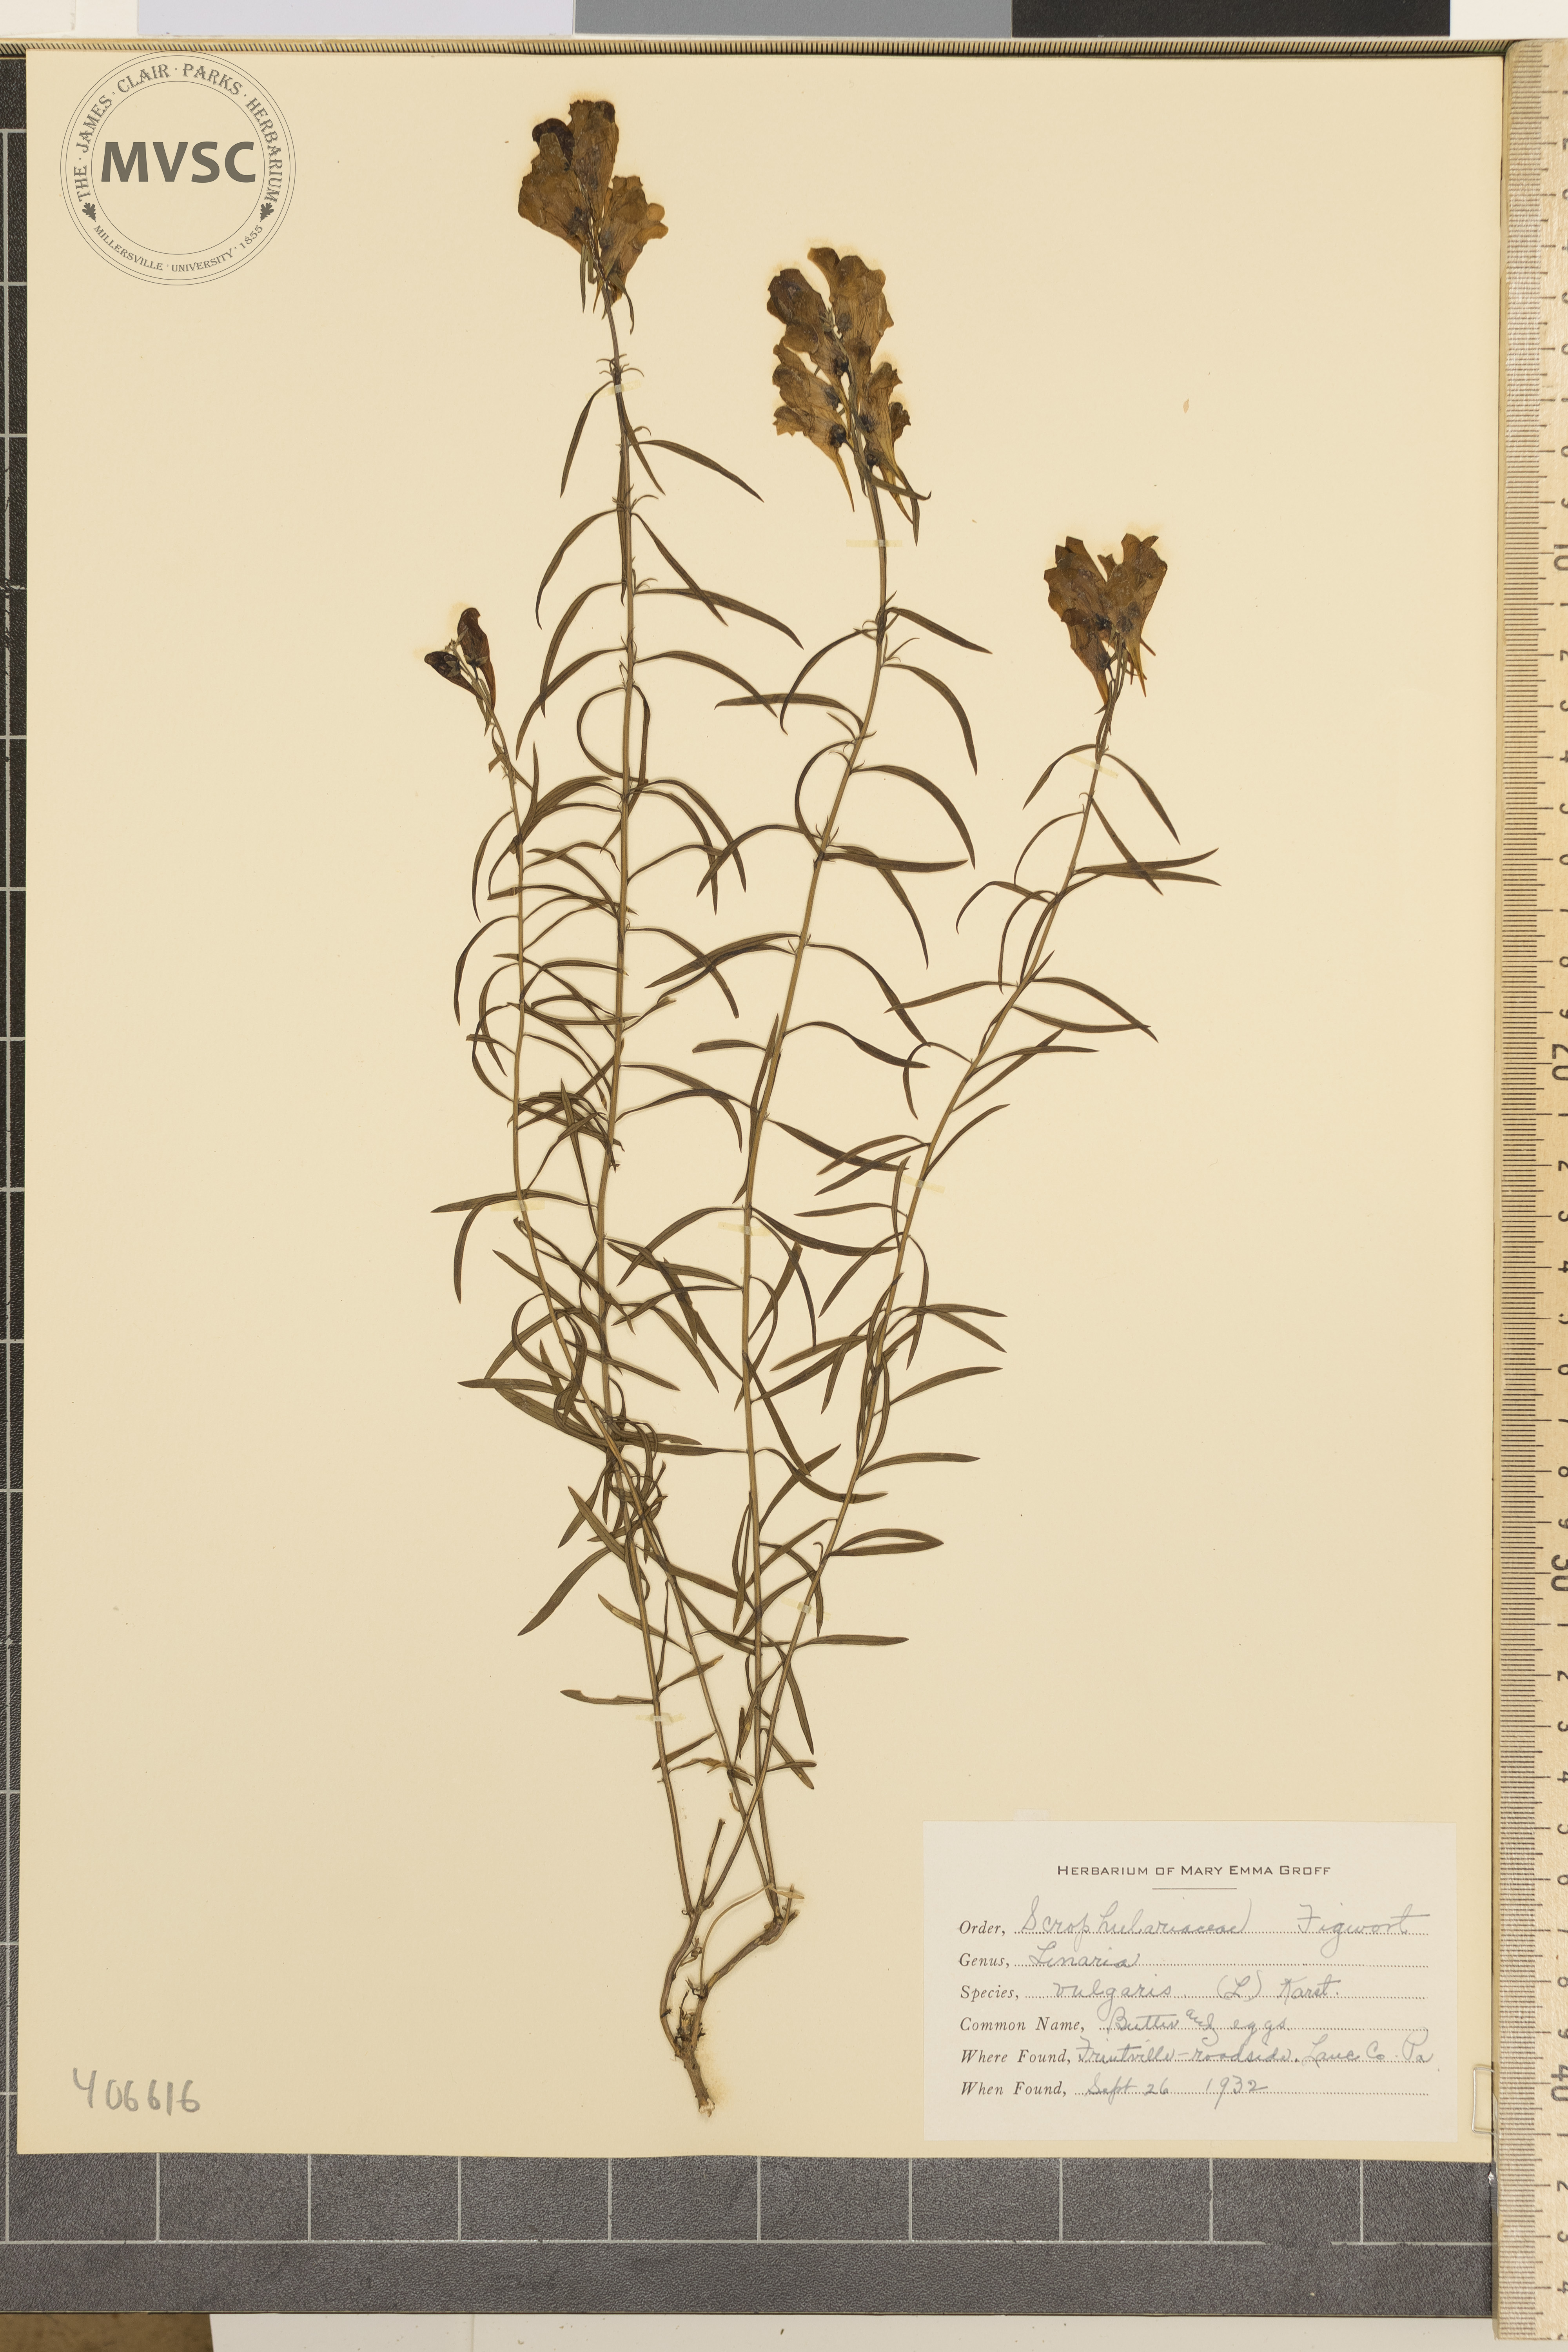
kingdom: Plantae
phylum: Tracheophyta
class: Magnoliopsida
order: Lamiales
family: Plantaginaceae
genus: Linaria
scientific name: Linaria vulgaris
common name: butter and eggs
